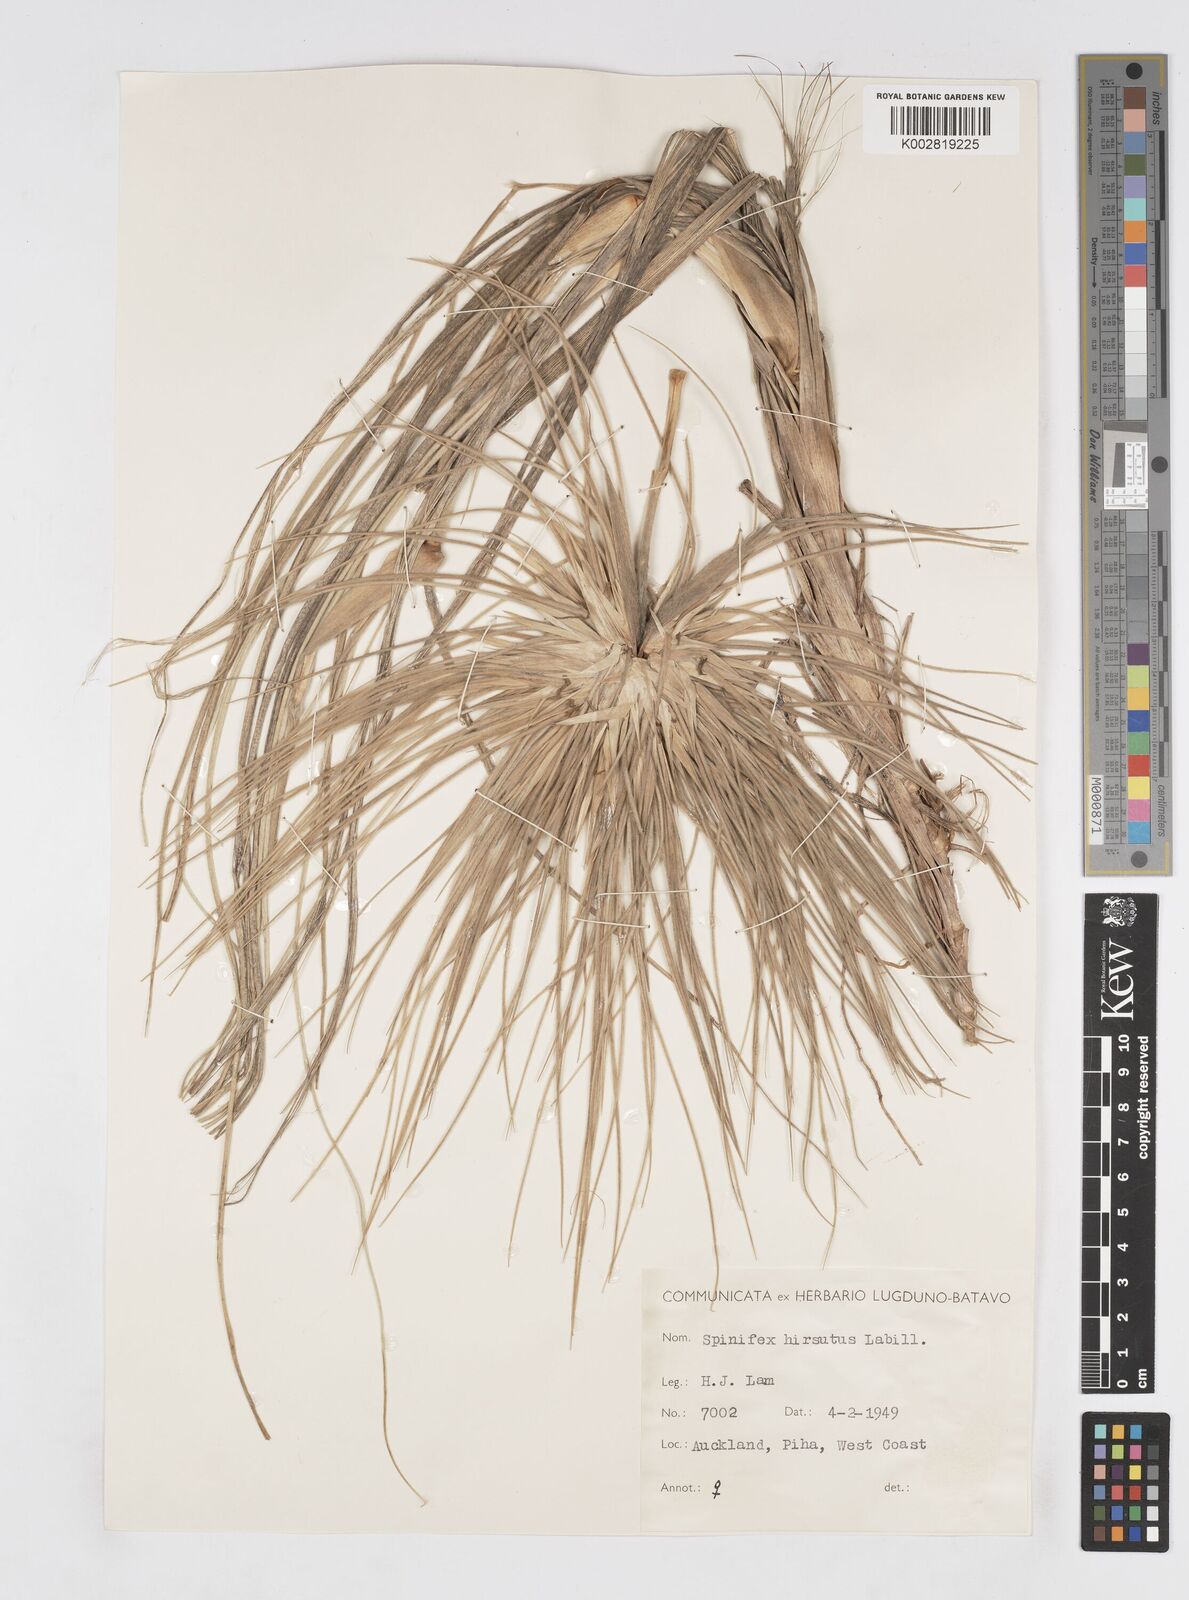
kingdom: Plantae
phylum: Tracheophyta
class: Liliopsida
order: Poales
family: Poaceae
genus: Spinifex
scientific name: Spinifex sericeus
